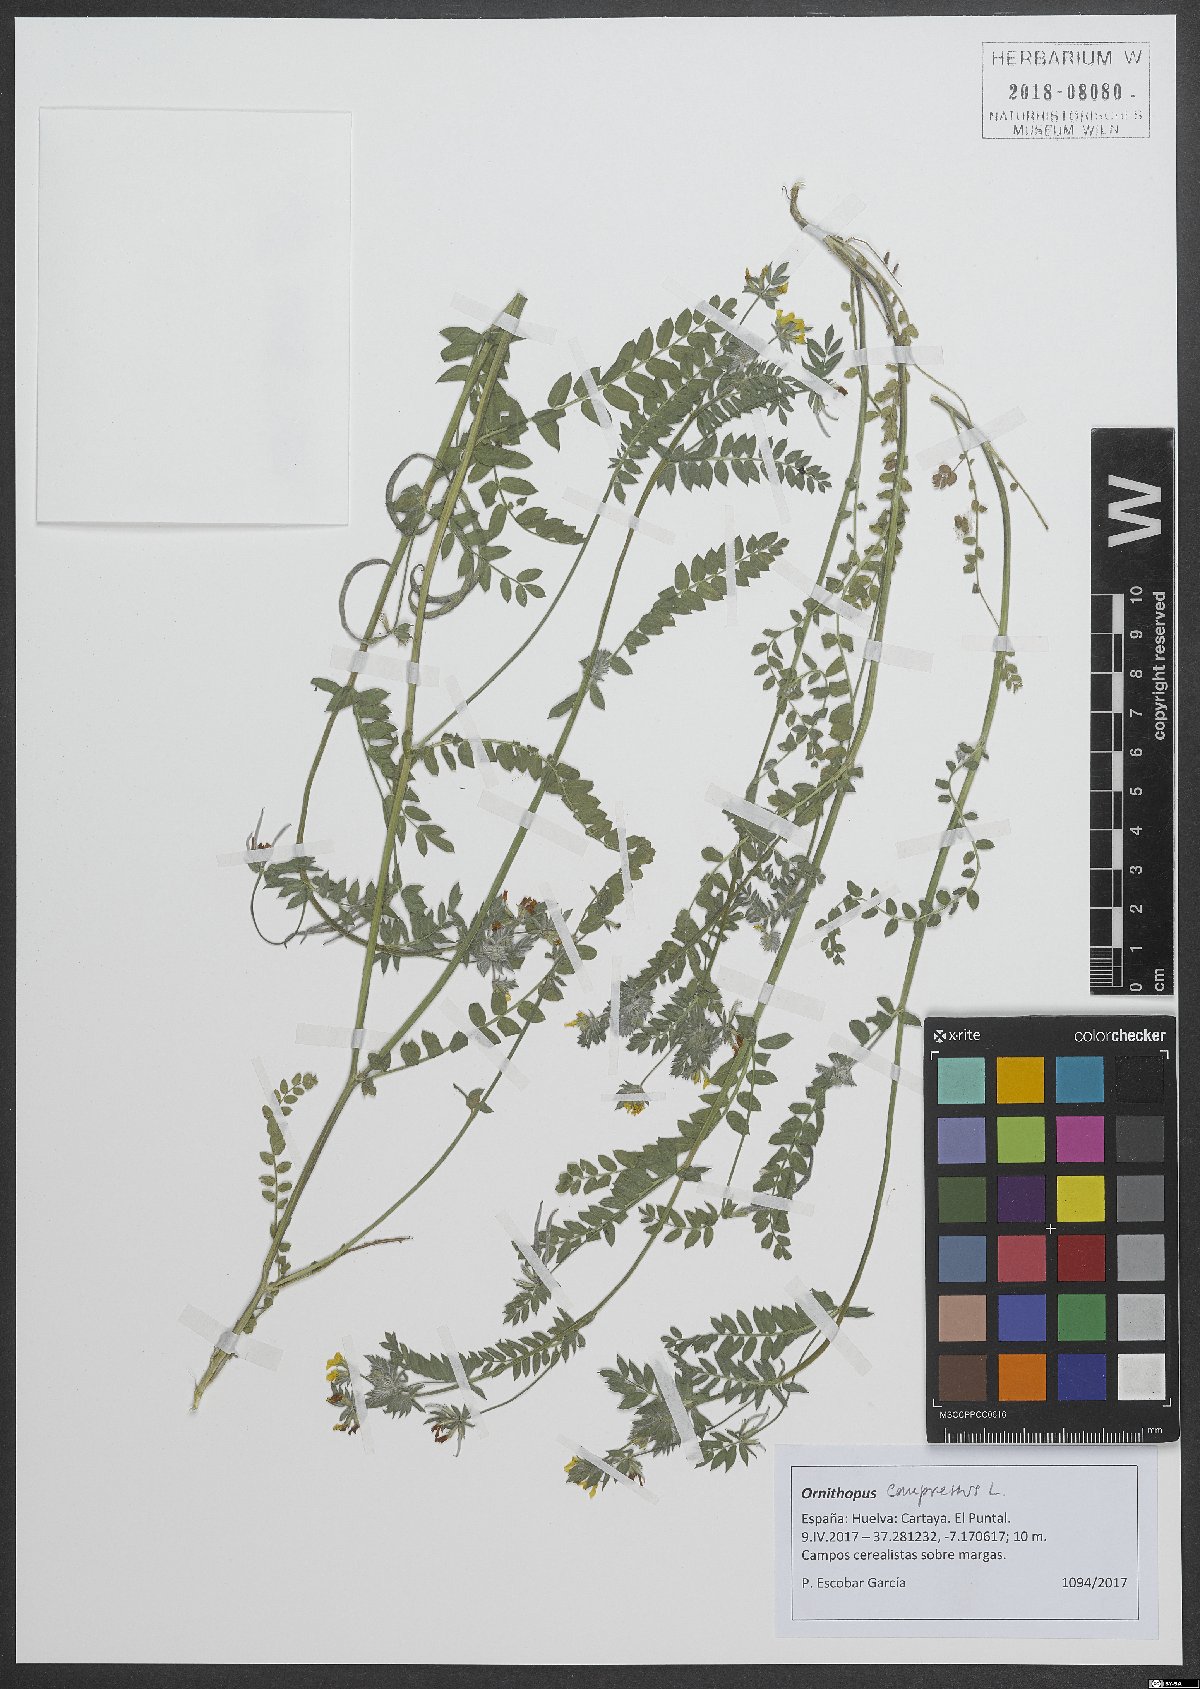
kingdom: Plantae
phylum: Tracheophyta
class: Magnoliopsida
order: Fabales
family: Fabaceae
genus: Ornithopus
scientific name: Ornithopus compressus
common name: Yellow serradella
